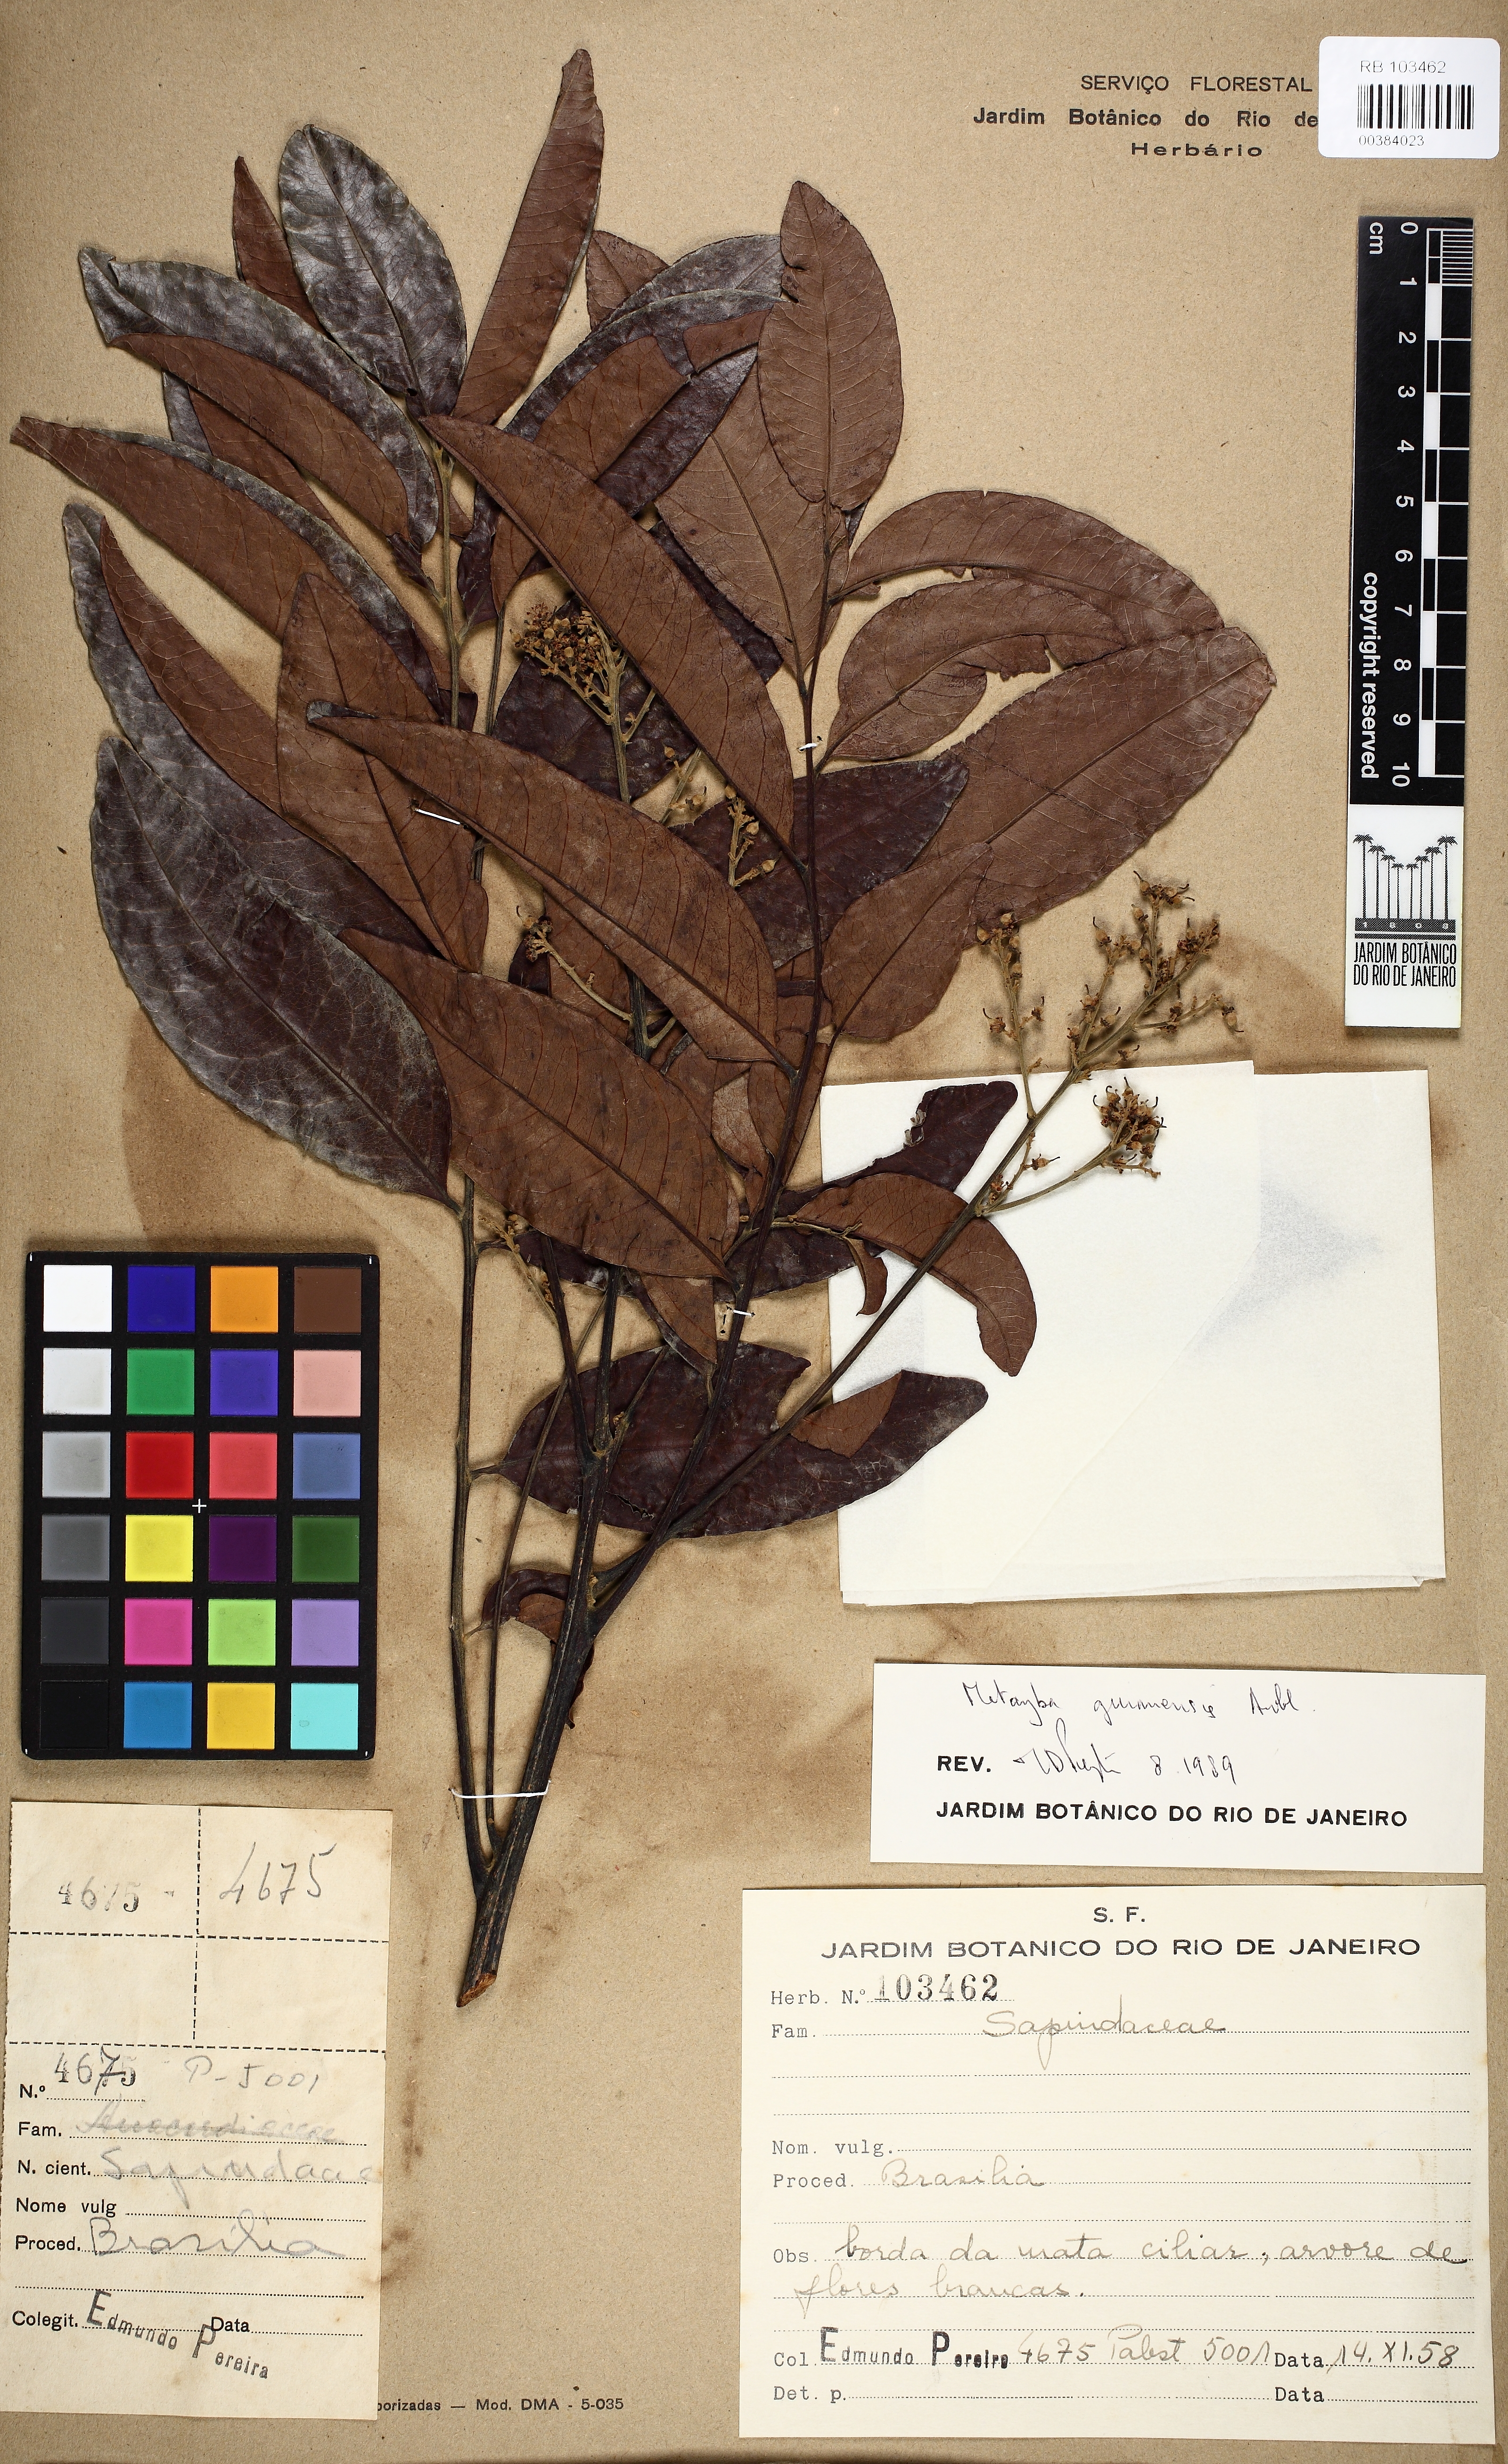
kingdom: Plantae
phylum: Tracheophyta
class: Magnoliopsida
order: Sapindales
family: Sapindaceae
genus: Matayba
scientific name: Matayba guianensis
